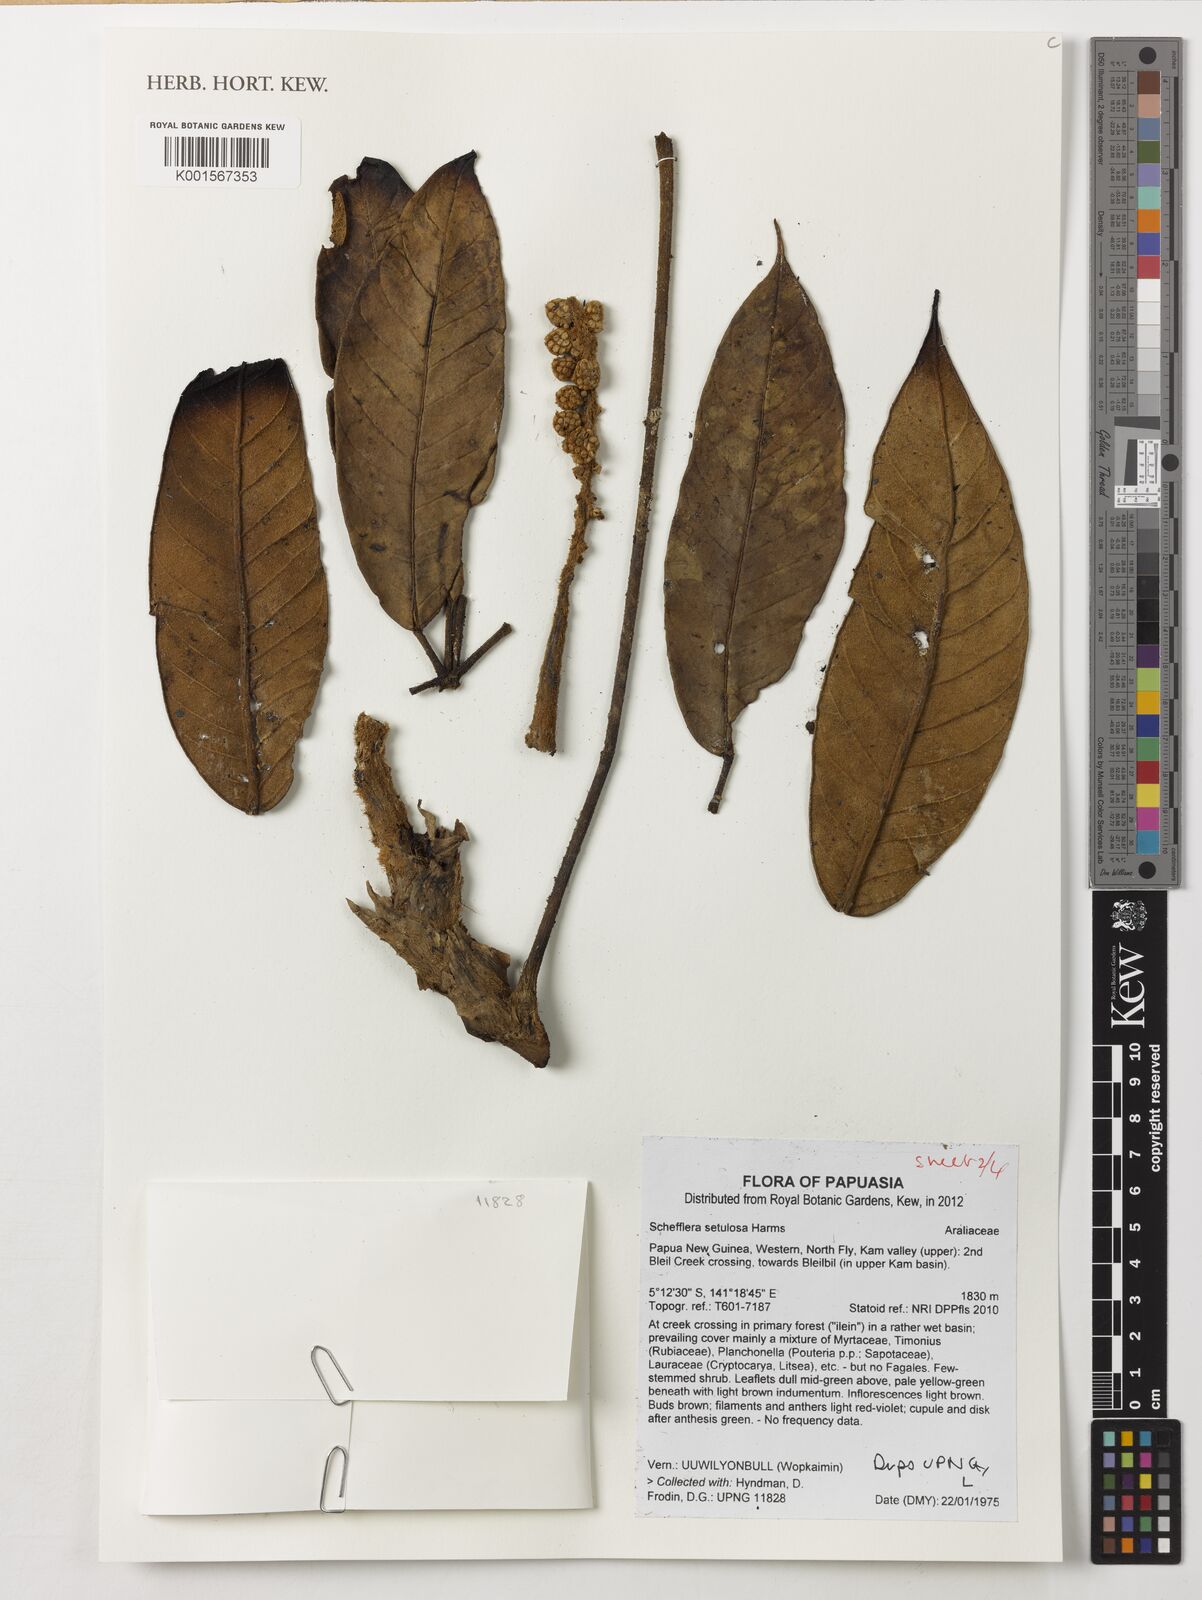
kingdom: Plantae
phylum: Tracheophyta
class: Magnoliopsida
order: Apiales
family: Araliaceae
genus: Heptapleurum
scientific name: Heptapleurum setulosum
